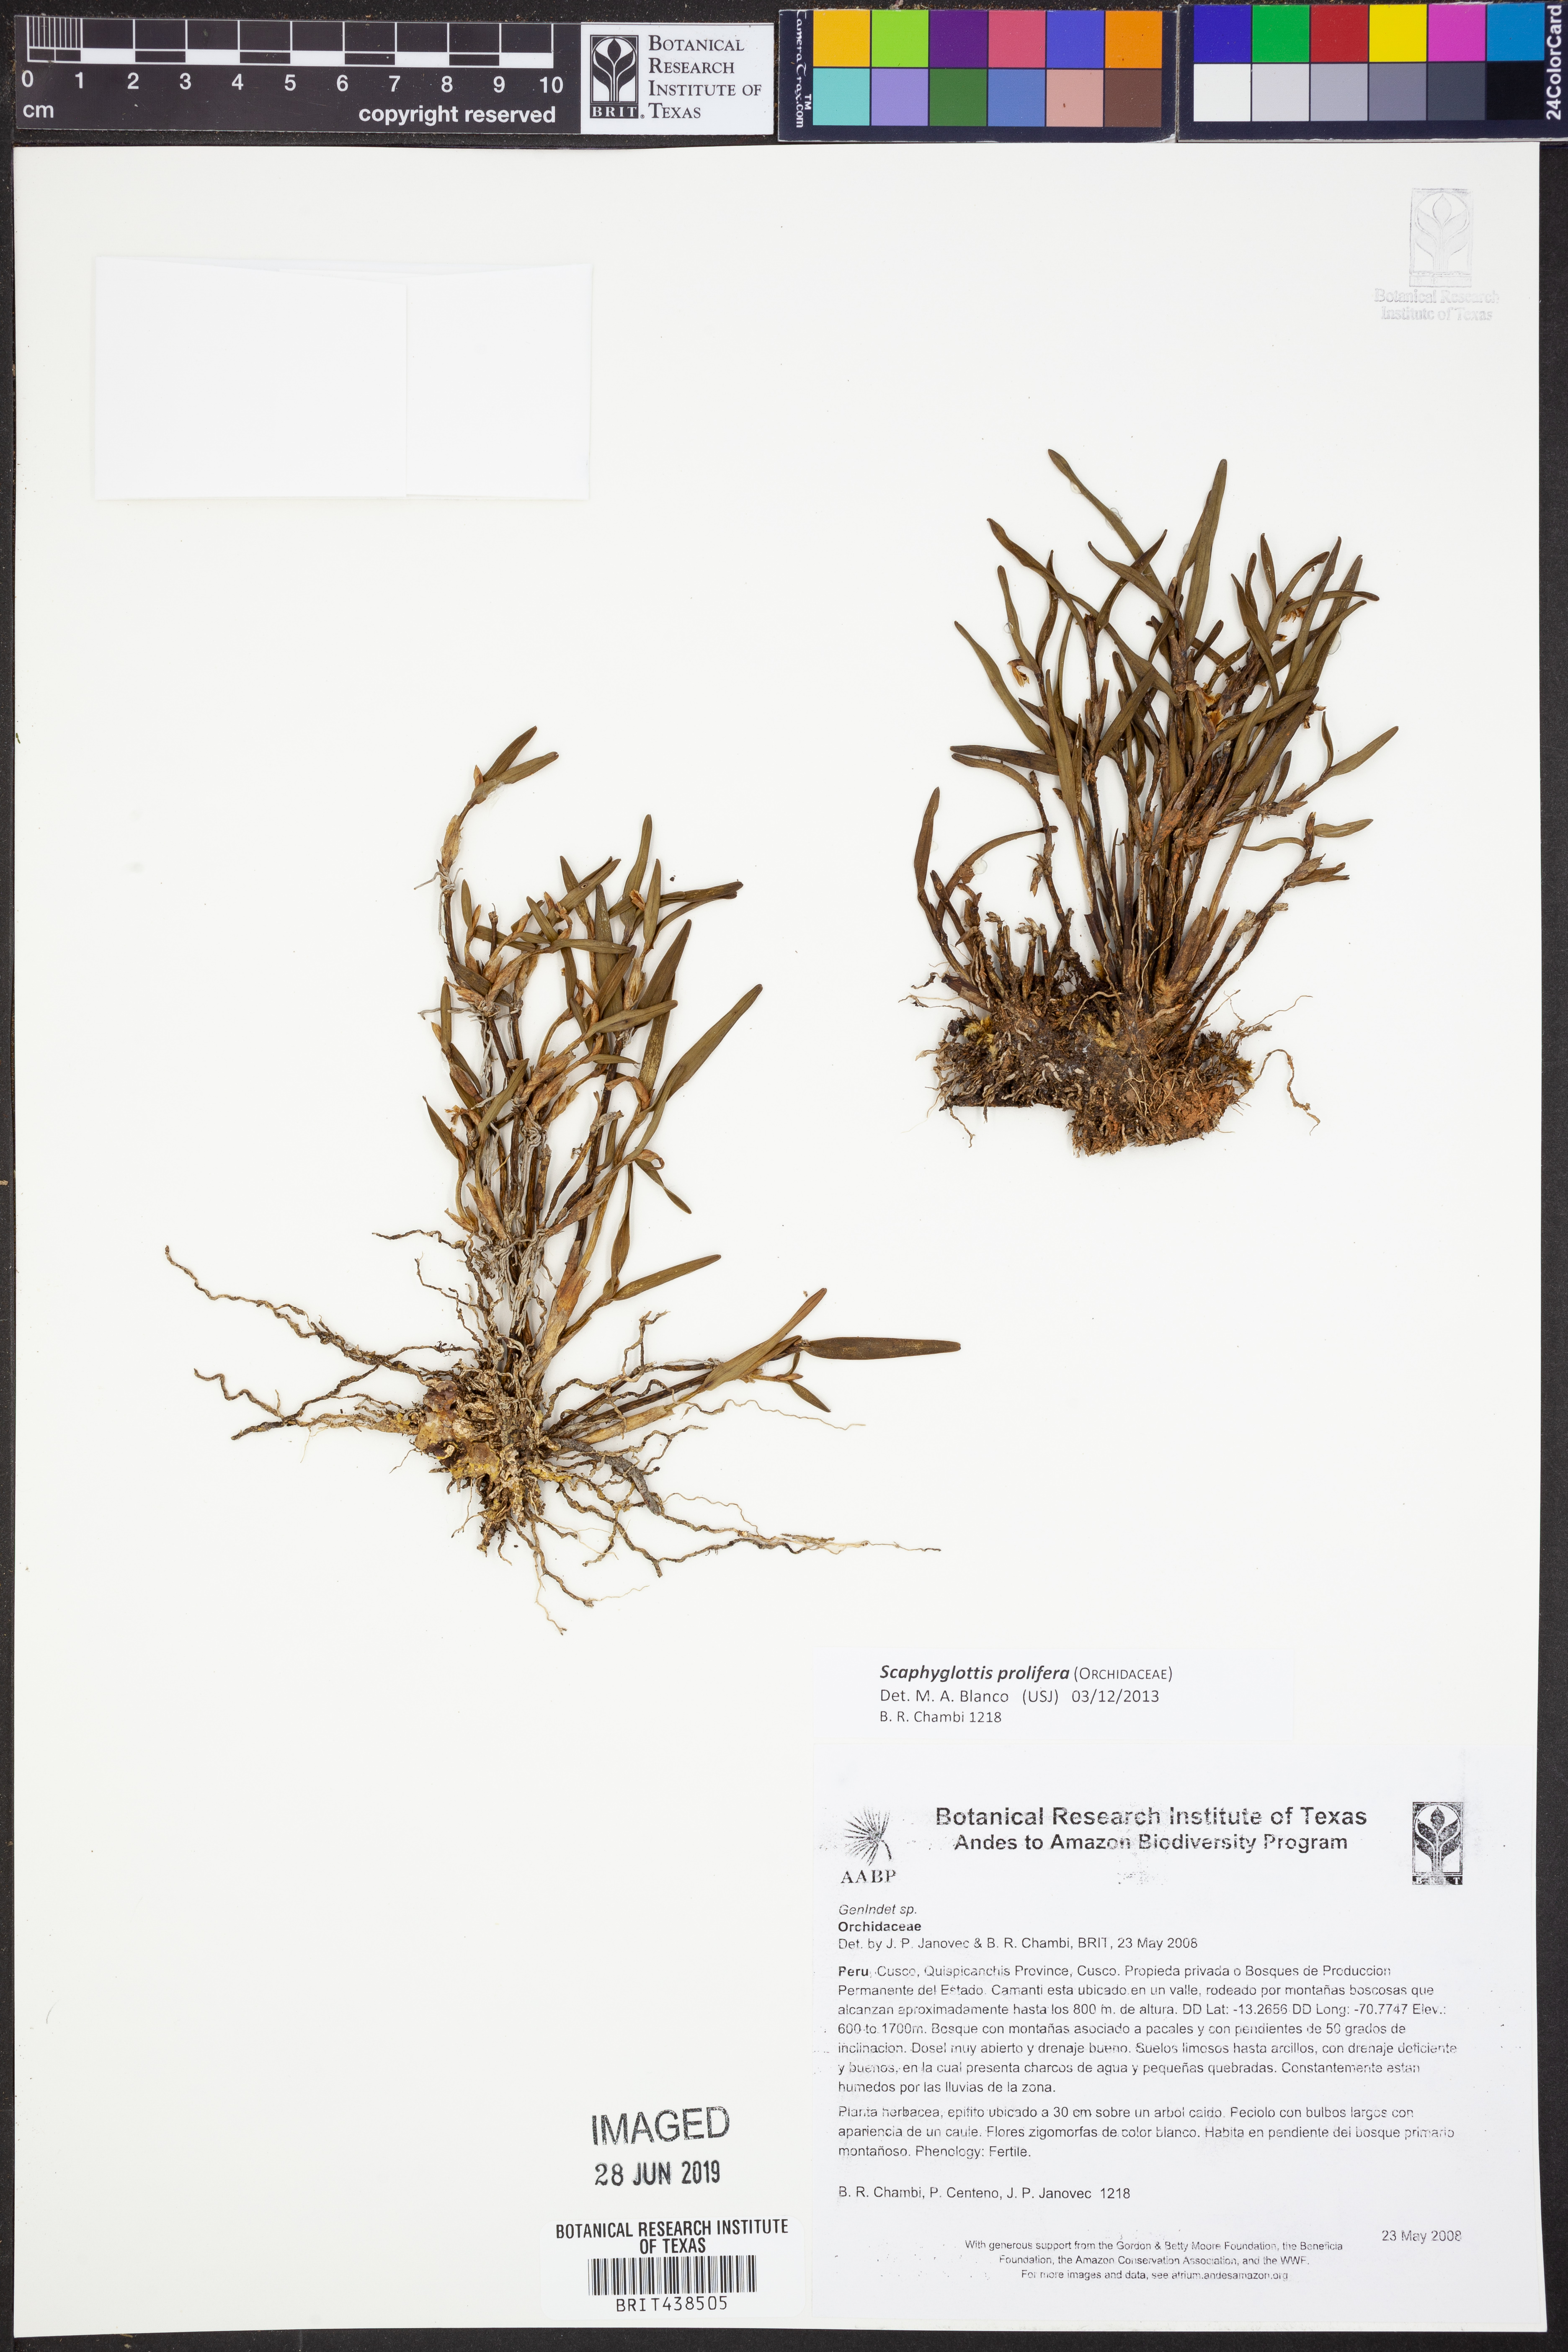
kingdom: Plantae
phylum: Tracheophyta
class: Liliopsida
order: Asparagales
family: Orchidaceae
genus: Scaphyglottis
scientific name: Scaphyglottis prolifera
